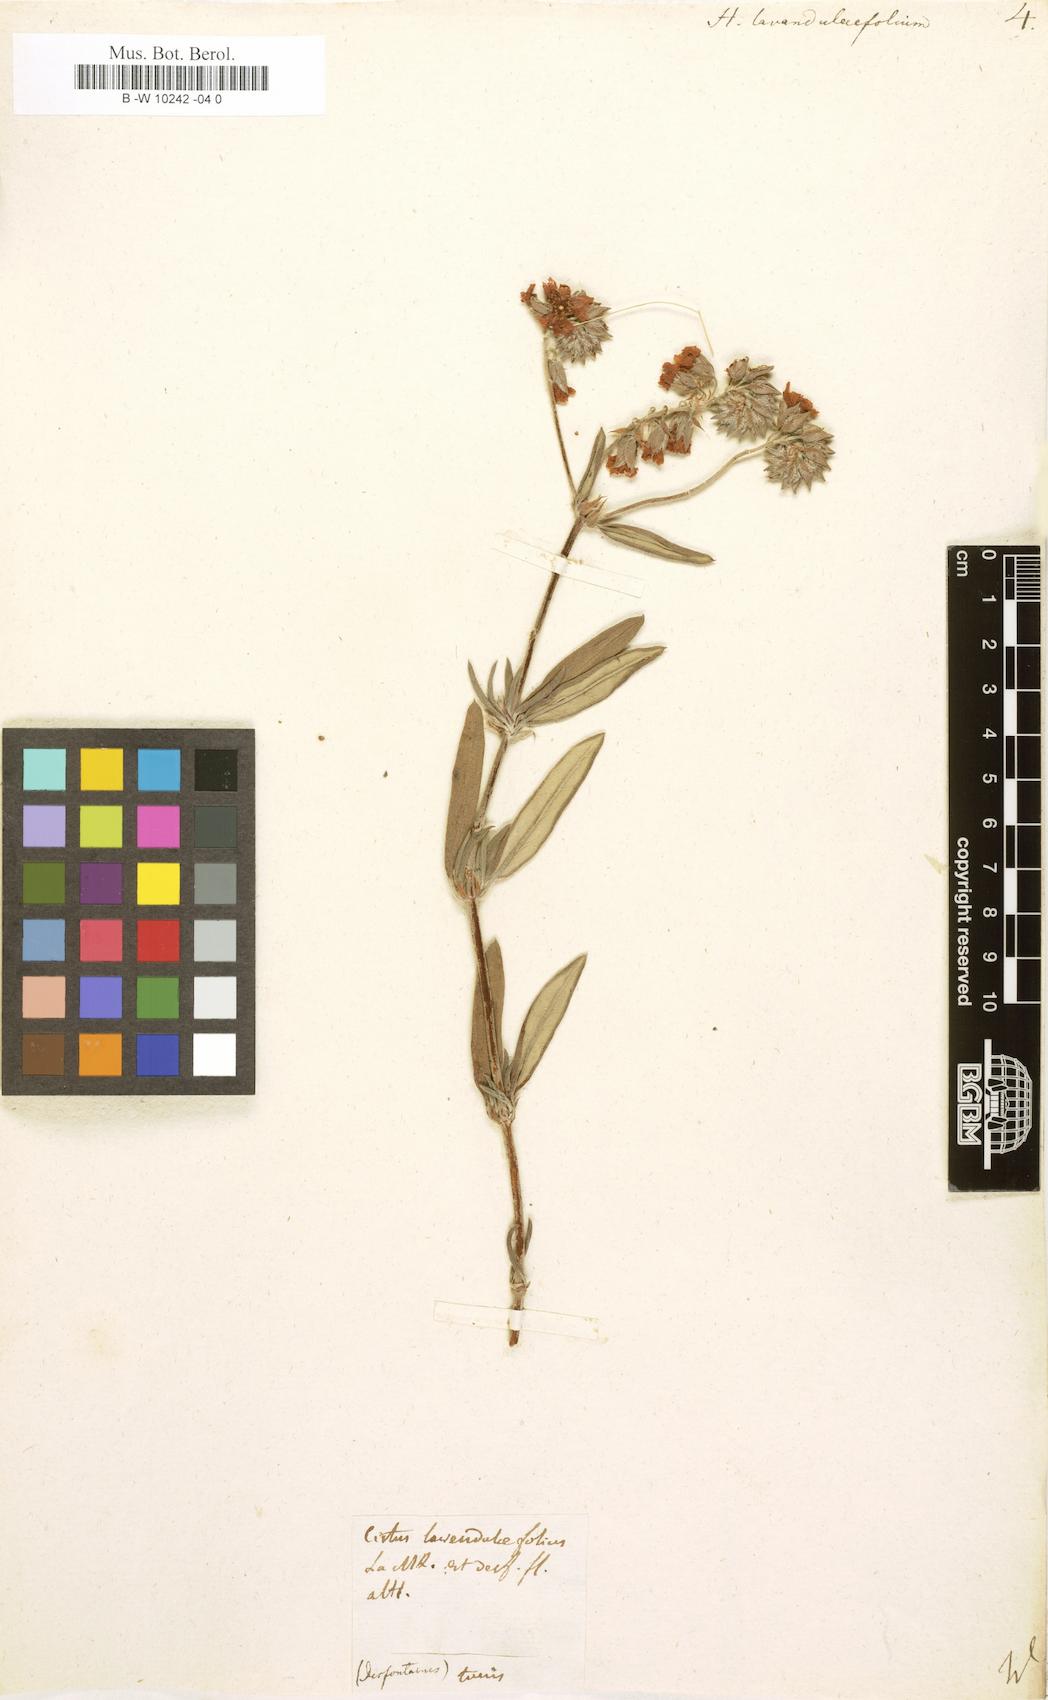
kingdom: Plantae
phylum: Tracheophyta
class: Magnoliopsida
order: Malvales
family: Cistaceae
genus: Helianthemum
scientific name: Helianthemum
